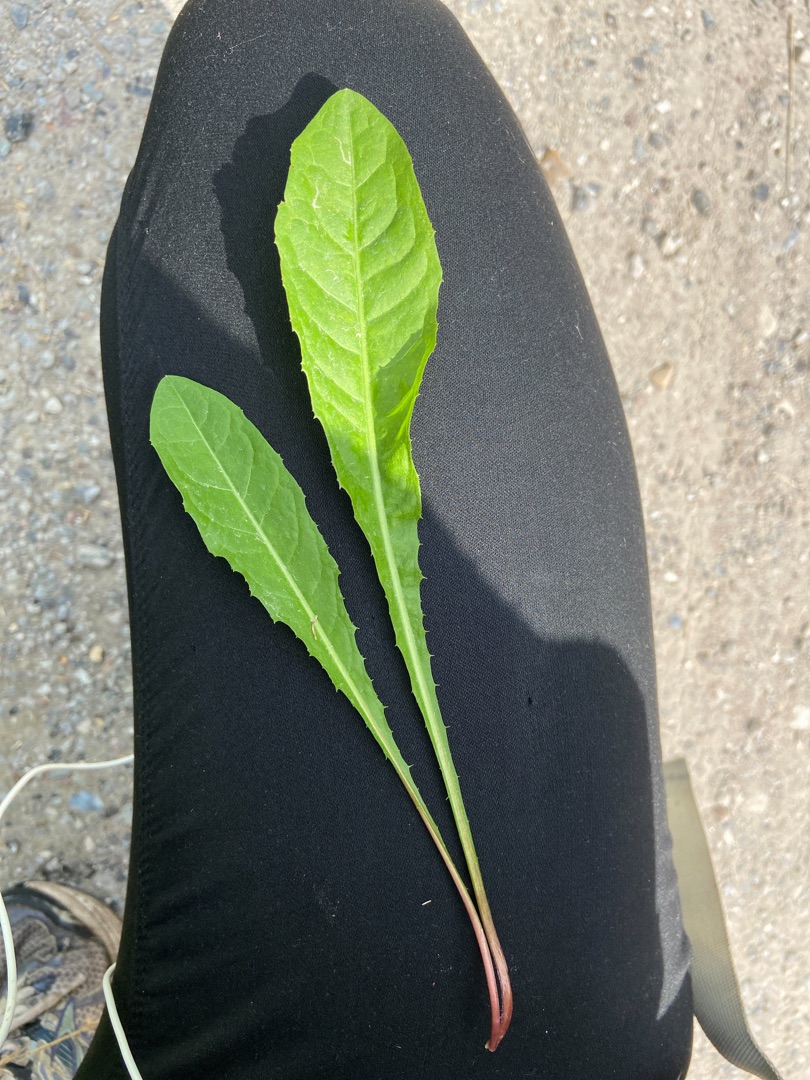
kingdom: Plantae
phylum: Tracheophyta
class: Magnoliopsida
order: Asterales
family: Asteraceae
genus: Taraxacum
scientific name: Taraxacum
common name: Mælkebøtteslægten
